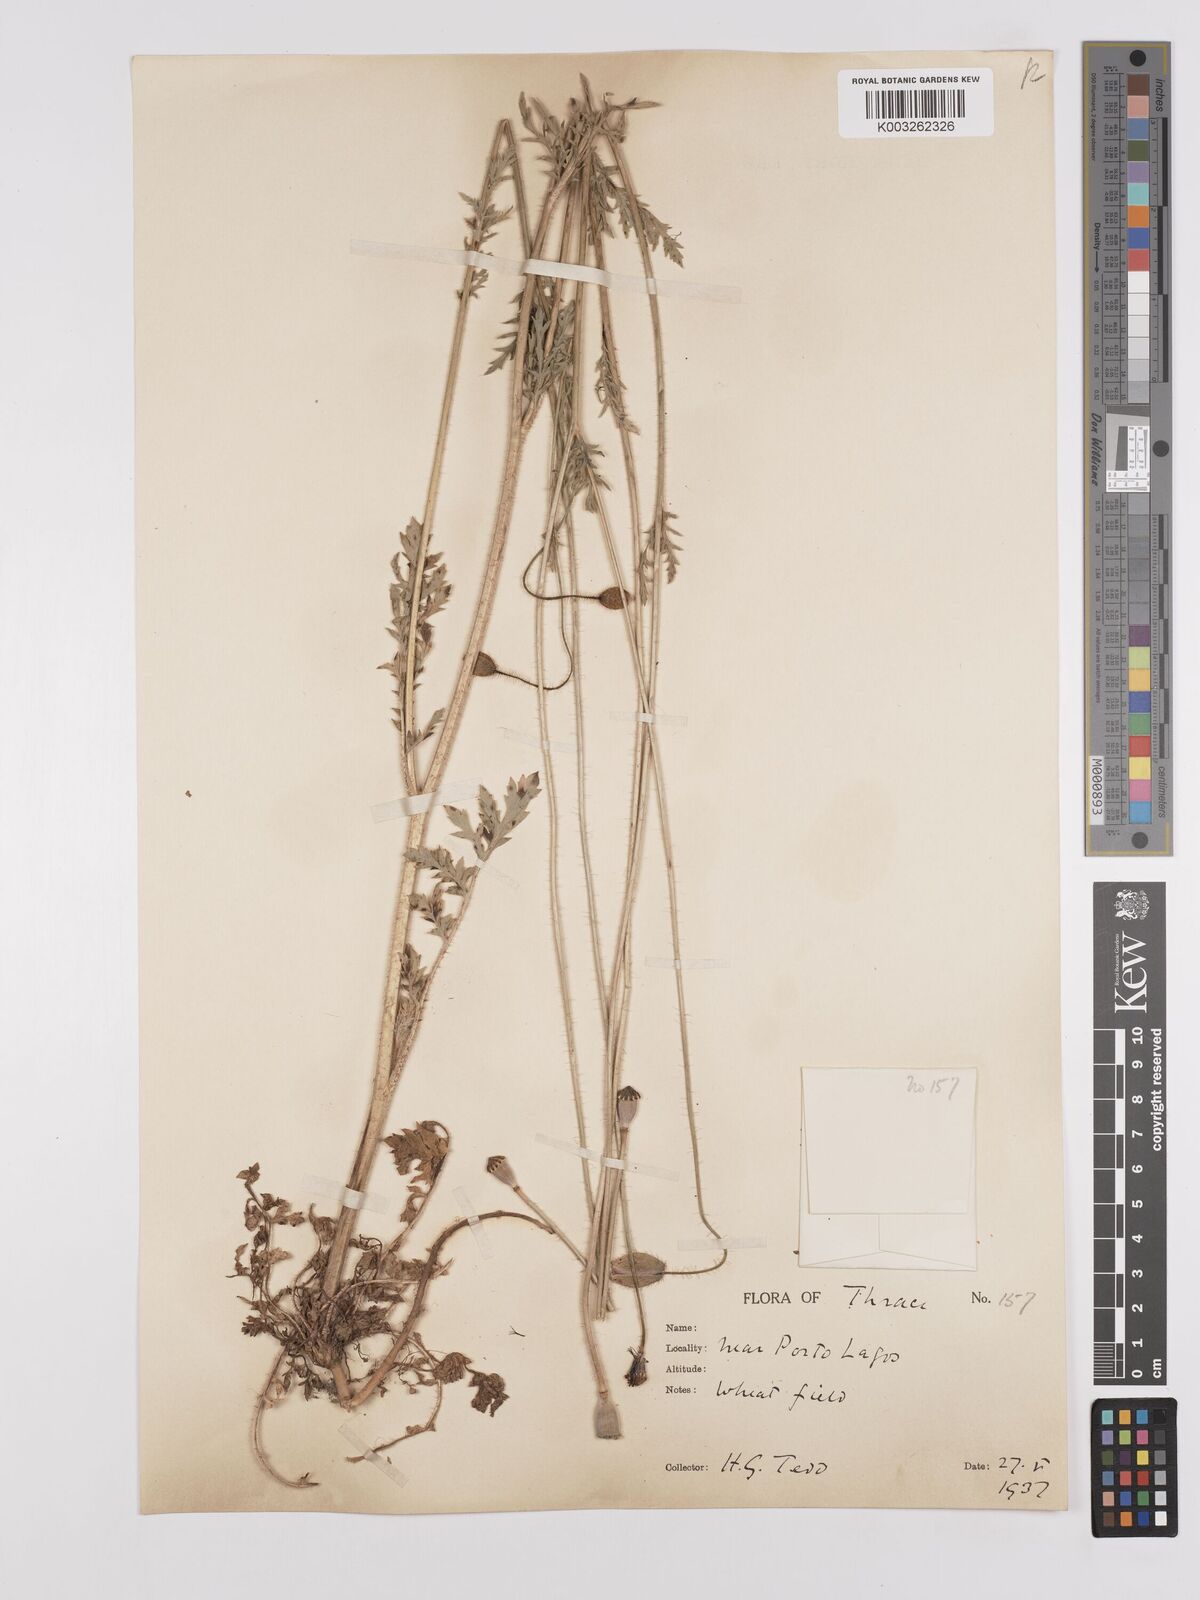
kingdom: Plantae
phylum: Tracheophyta
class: Magnoliopsida
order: Ranunculales
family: Papaveraceae
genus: Papaver
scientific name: Papaver rhoeas
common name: Corn poppy
